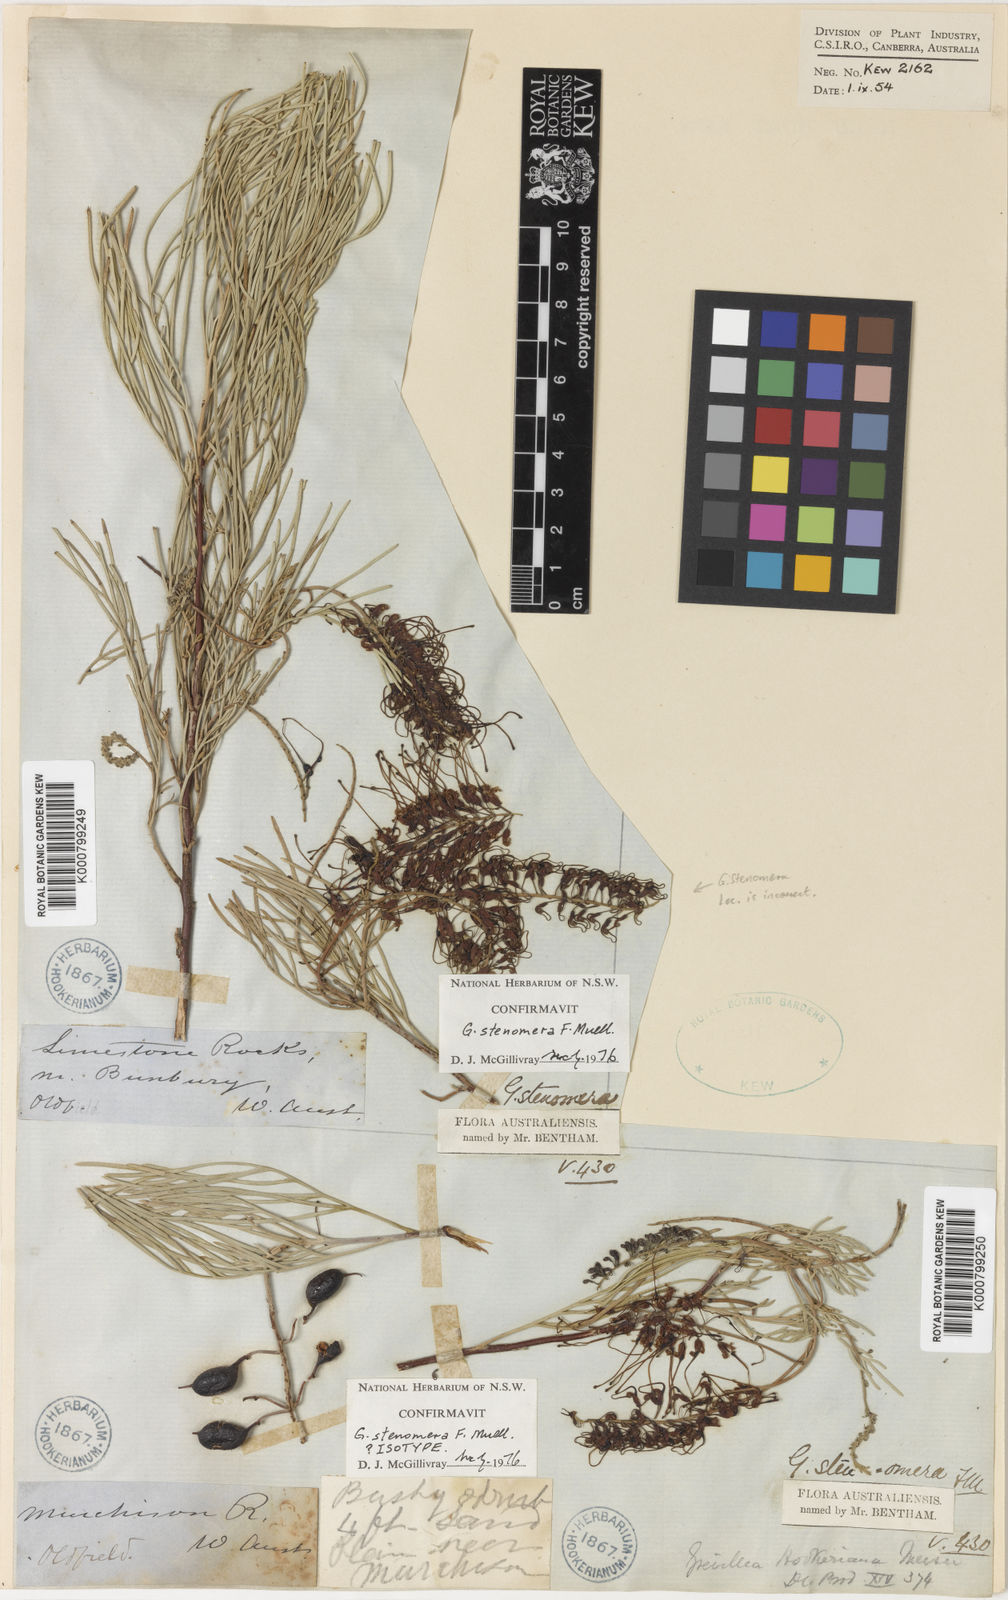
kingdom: Plantae
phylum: Tracheophyta
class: Magnoliopsida
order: Proteales
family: Proteaceae
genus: Grevillea
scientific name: Grevillea stenomera
